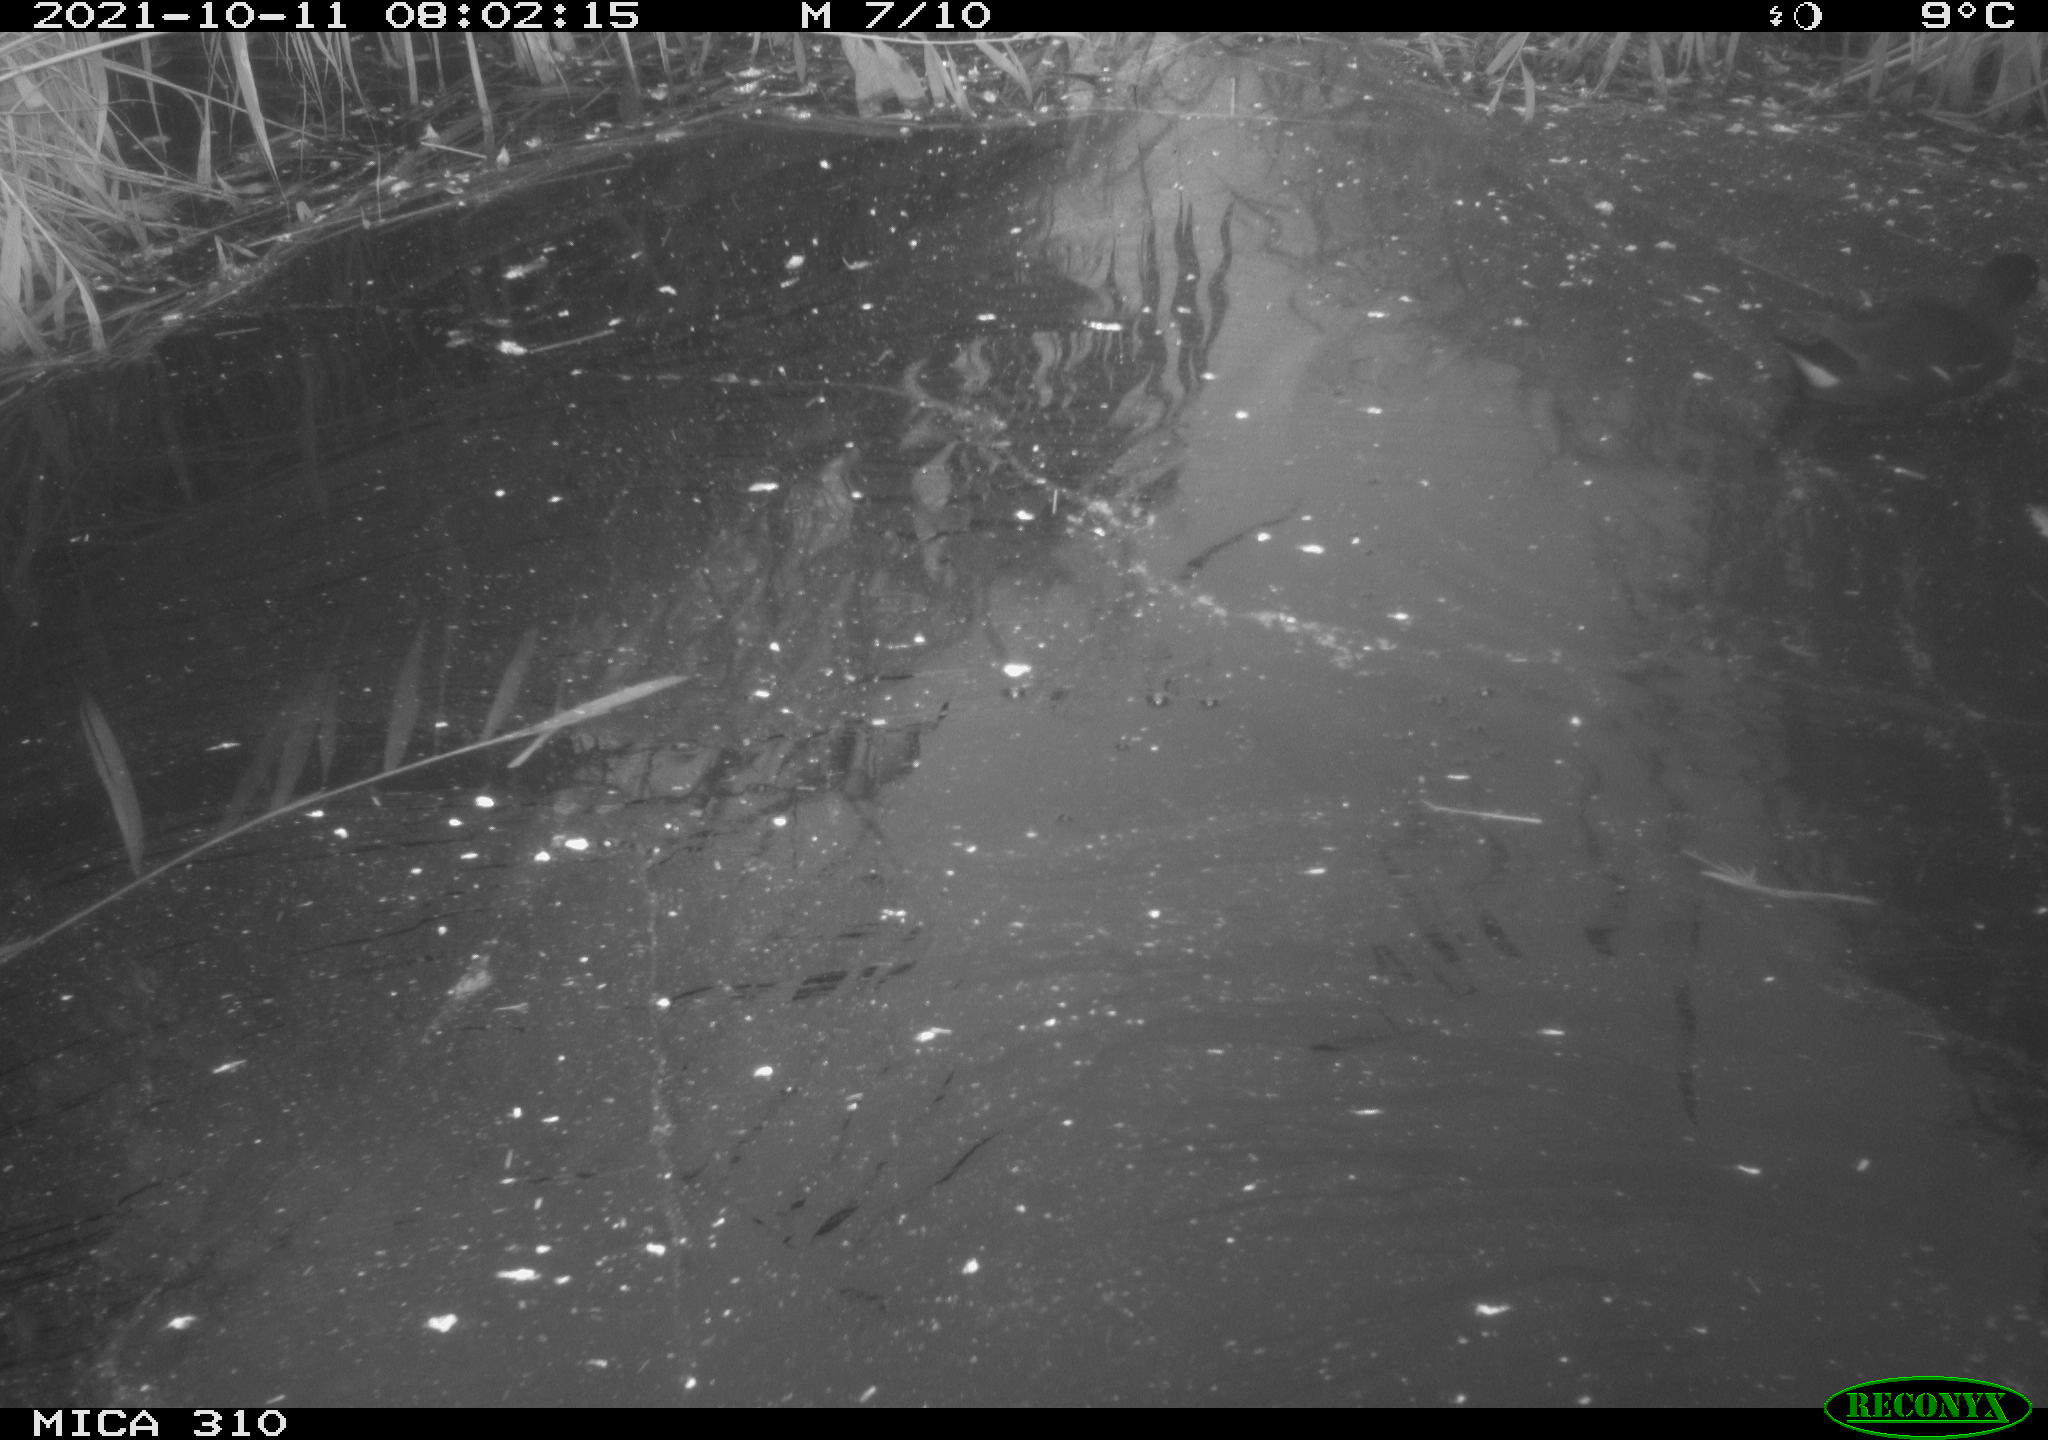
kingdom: Animalia
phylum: Chordata
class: Aves
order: Gruiformes
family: Rallidae
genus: Gallinula
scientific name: Gallinula chloropus
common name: Common moorhen
